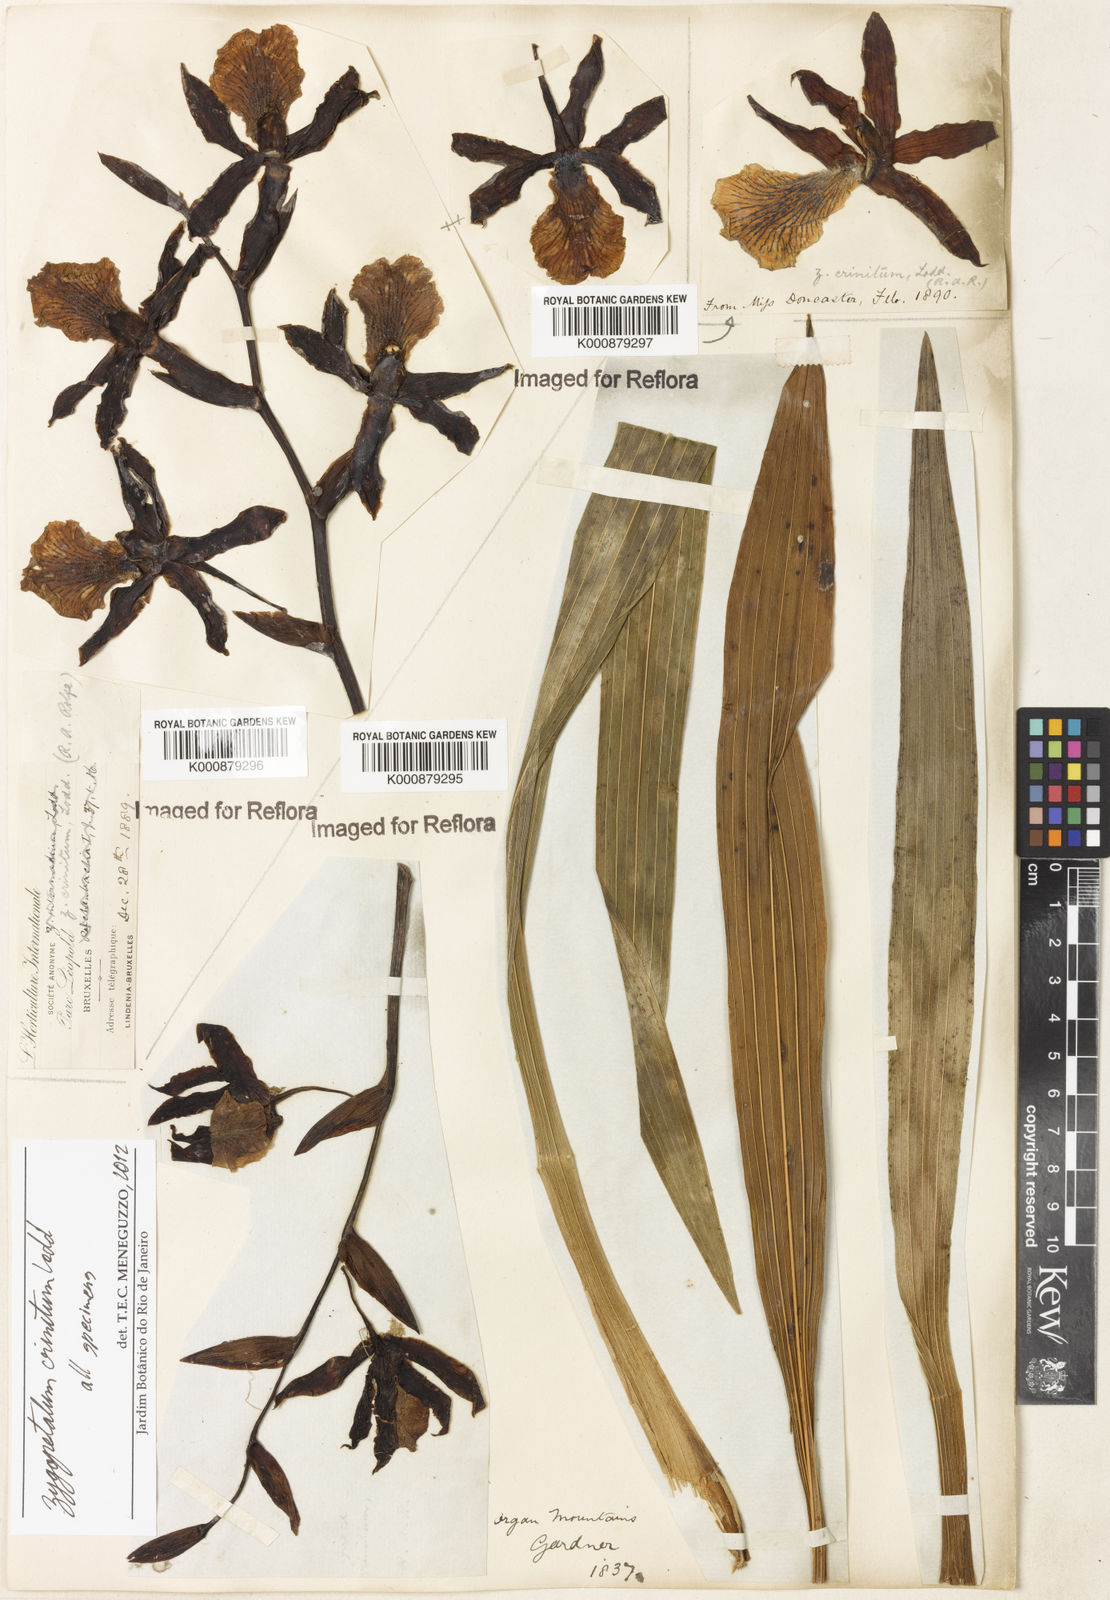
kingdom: Plantae
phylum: Tracheophyta
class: Liliopsida
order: Asparagales
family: Orchidaceae
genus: Zygopetalum
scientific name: Zygopetalum crinitum
